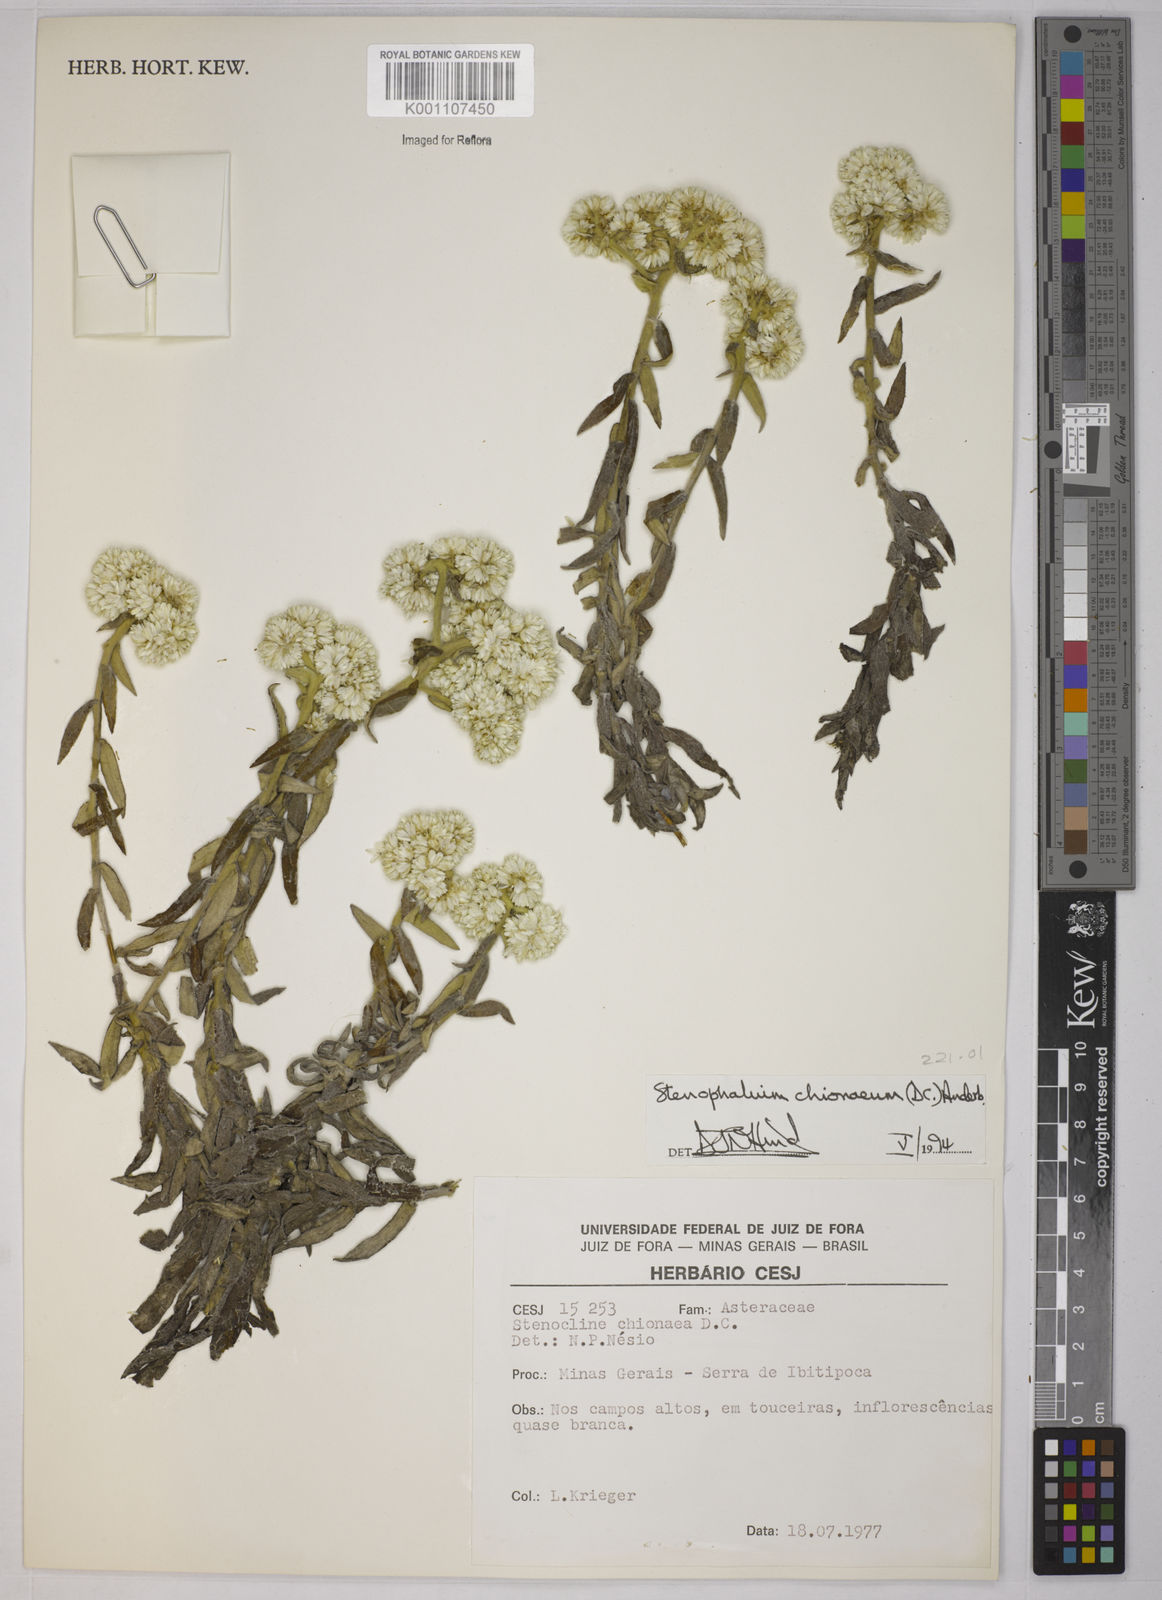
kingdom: Plantae
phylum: Tracheophyta
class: Magnoliopsida
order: Asterales
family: Asteraceae
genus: Achyrocline
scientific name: Achyrocline chionaea
